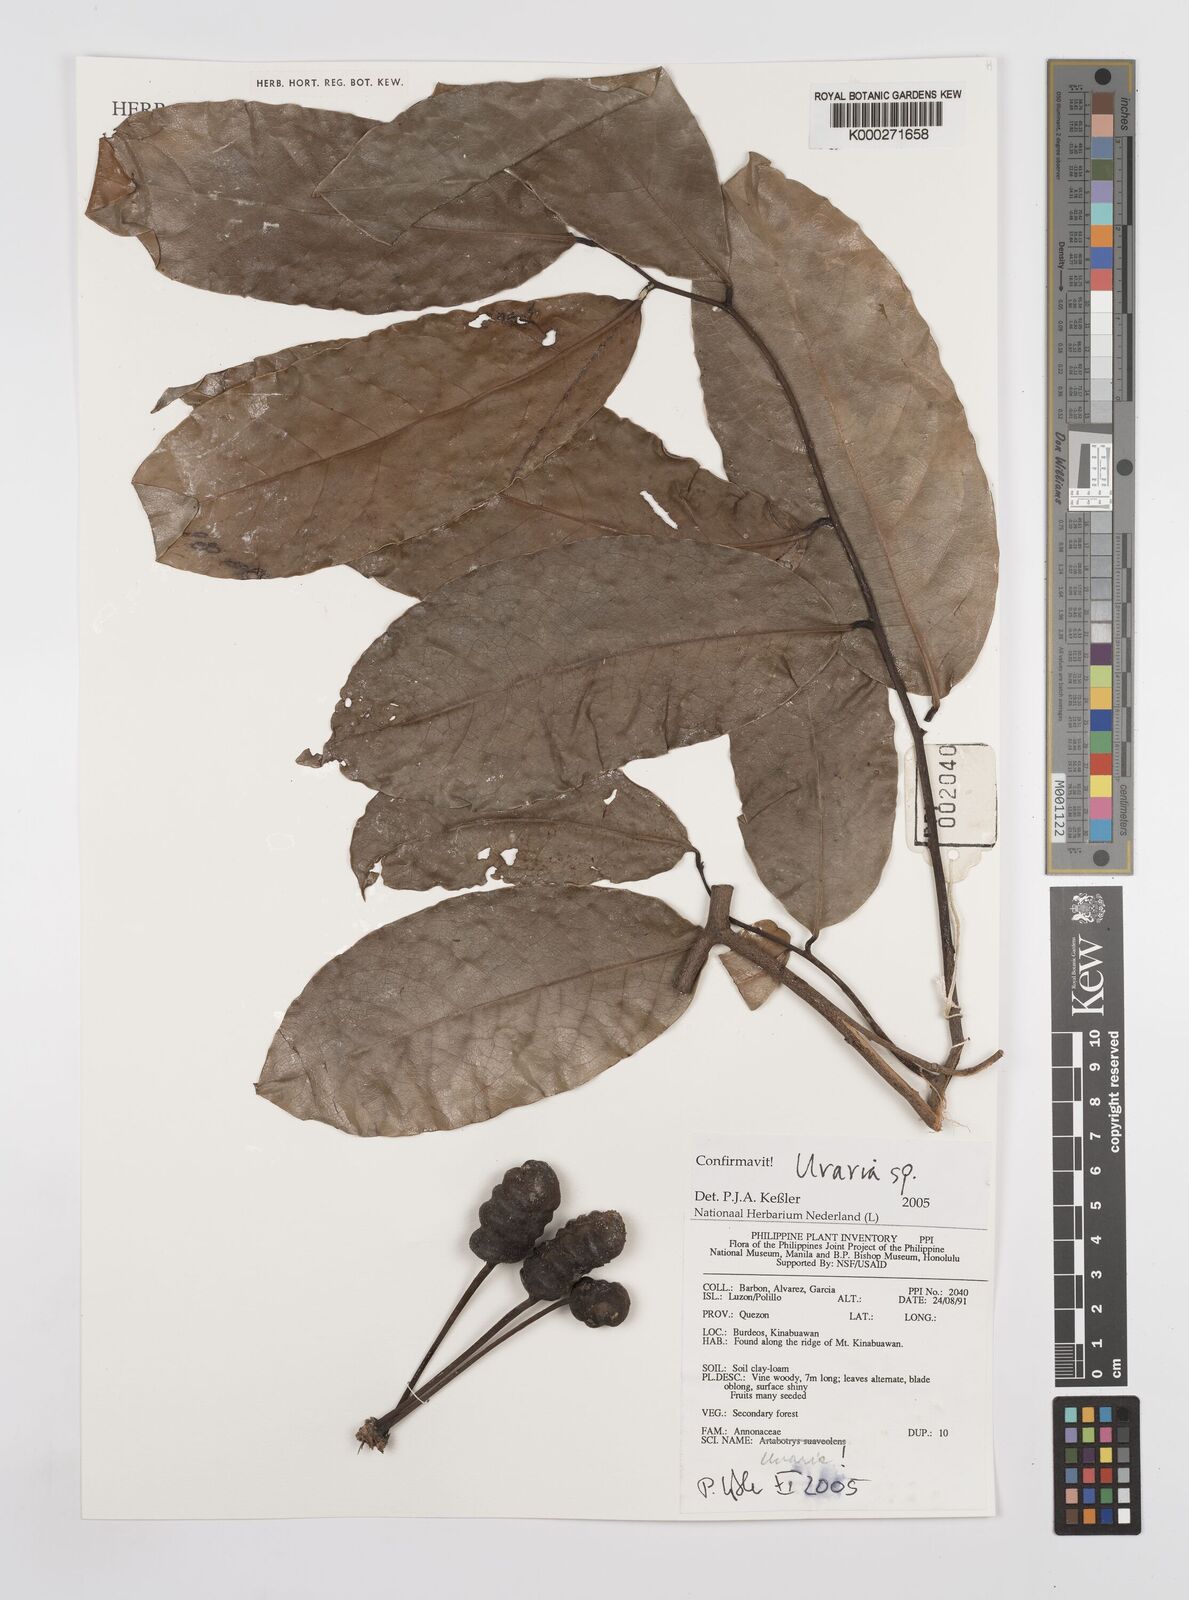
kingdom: Plantae
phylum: Tracheophyta
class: Magnoliopsida
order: Magnoliales
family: Annonaceae
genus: Uvaria
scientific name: Uvaria
